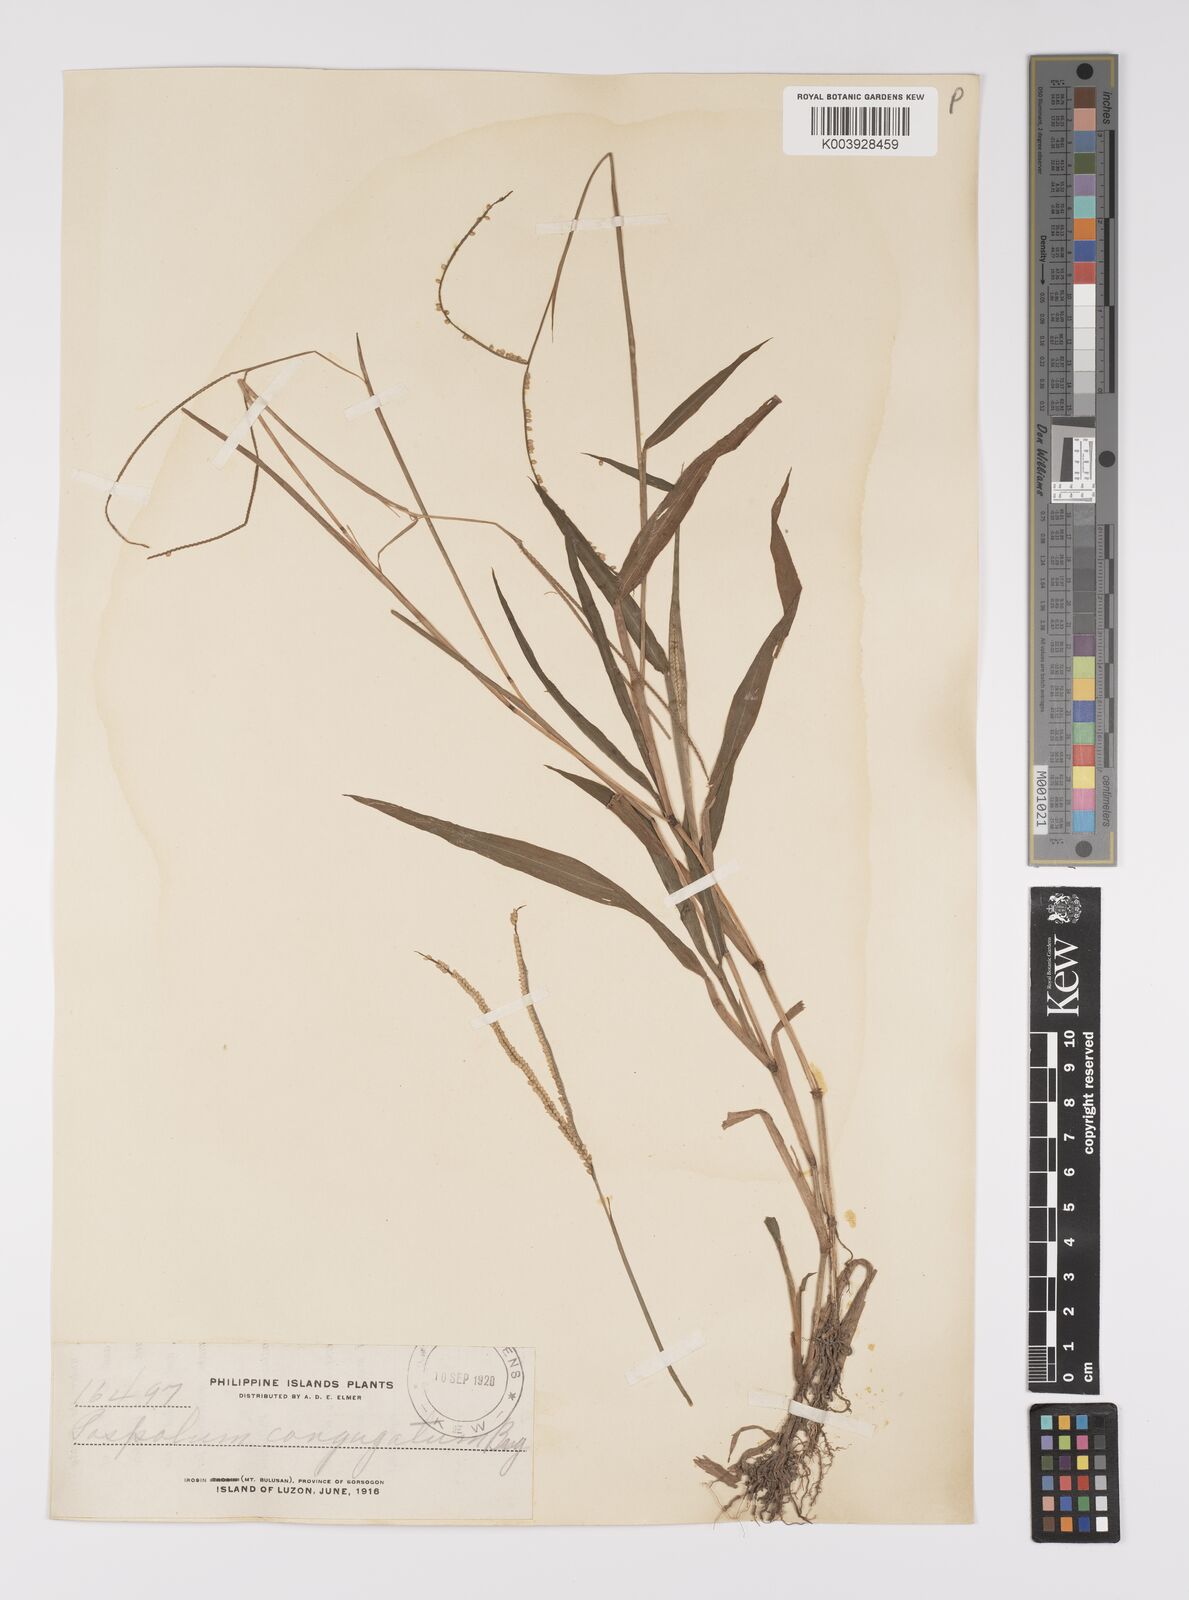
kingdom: Plantae
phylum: Tracheophyta
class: Liliopsida
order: Poales
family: Poaceae
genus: Paspalum
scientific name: Paspalum conjugatum
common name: Hilograss
